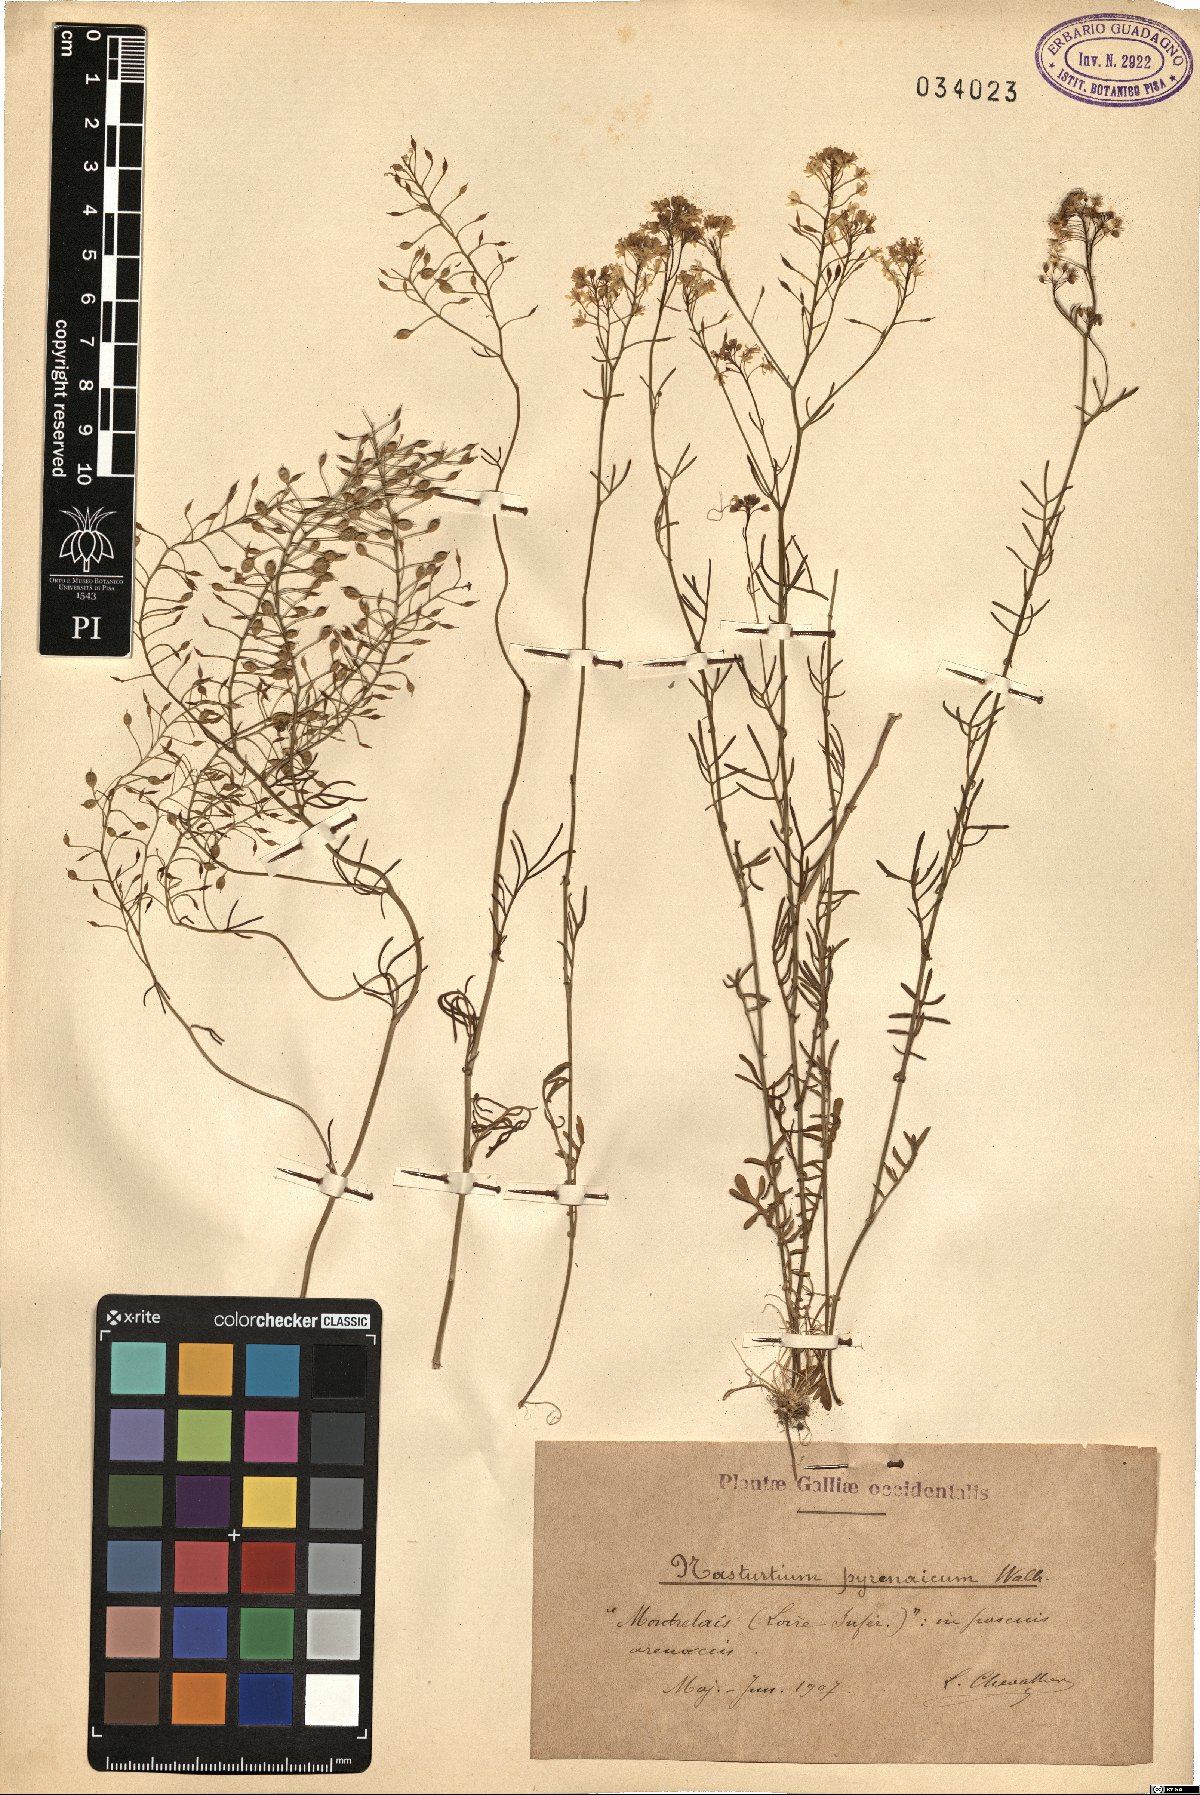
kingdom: Plantae
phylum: Tracheophyta
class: Magnoliopsida
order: Brassicales
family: Brassicaceae
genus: Rorippa
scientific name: Rorippa pyrenaica
